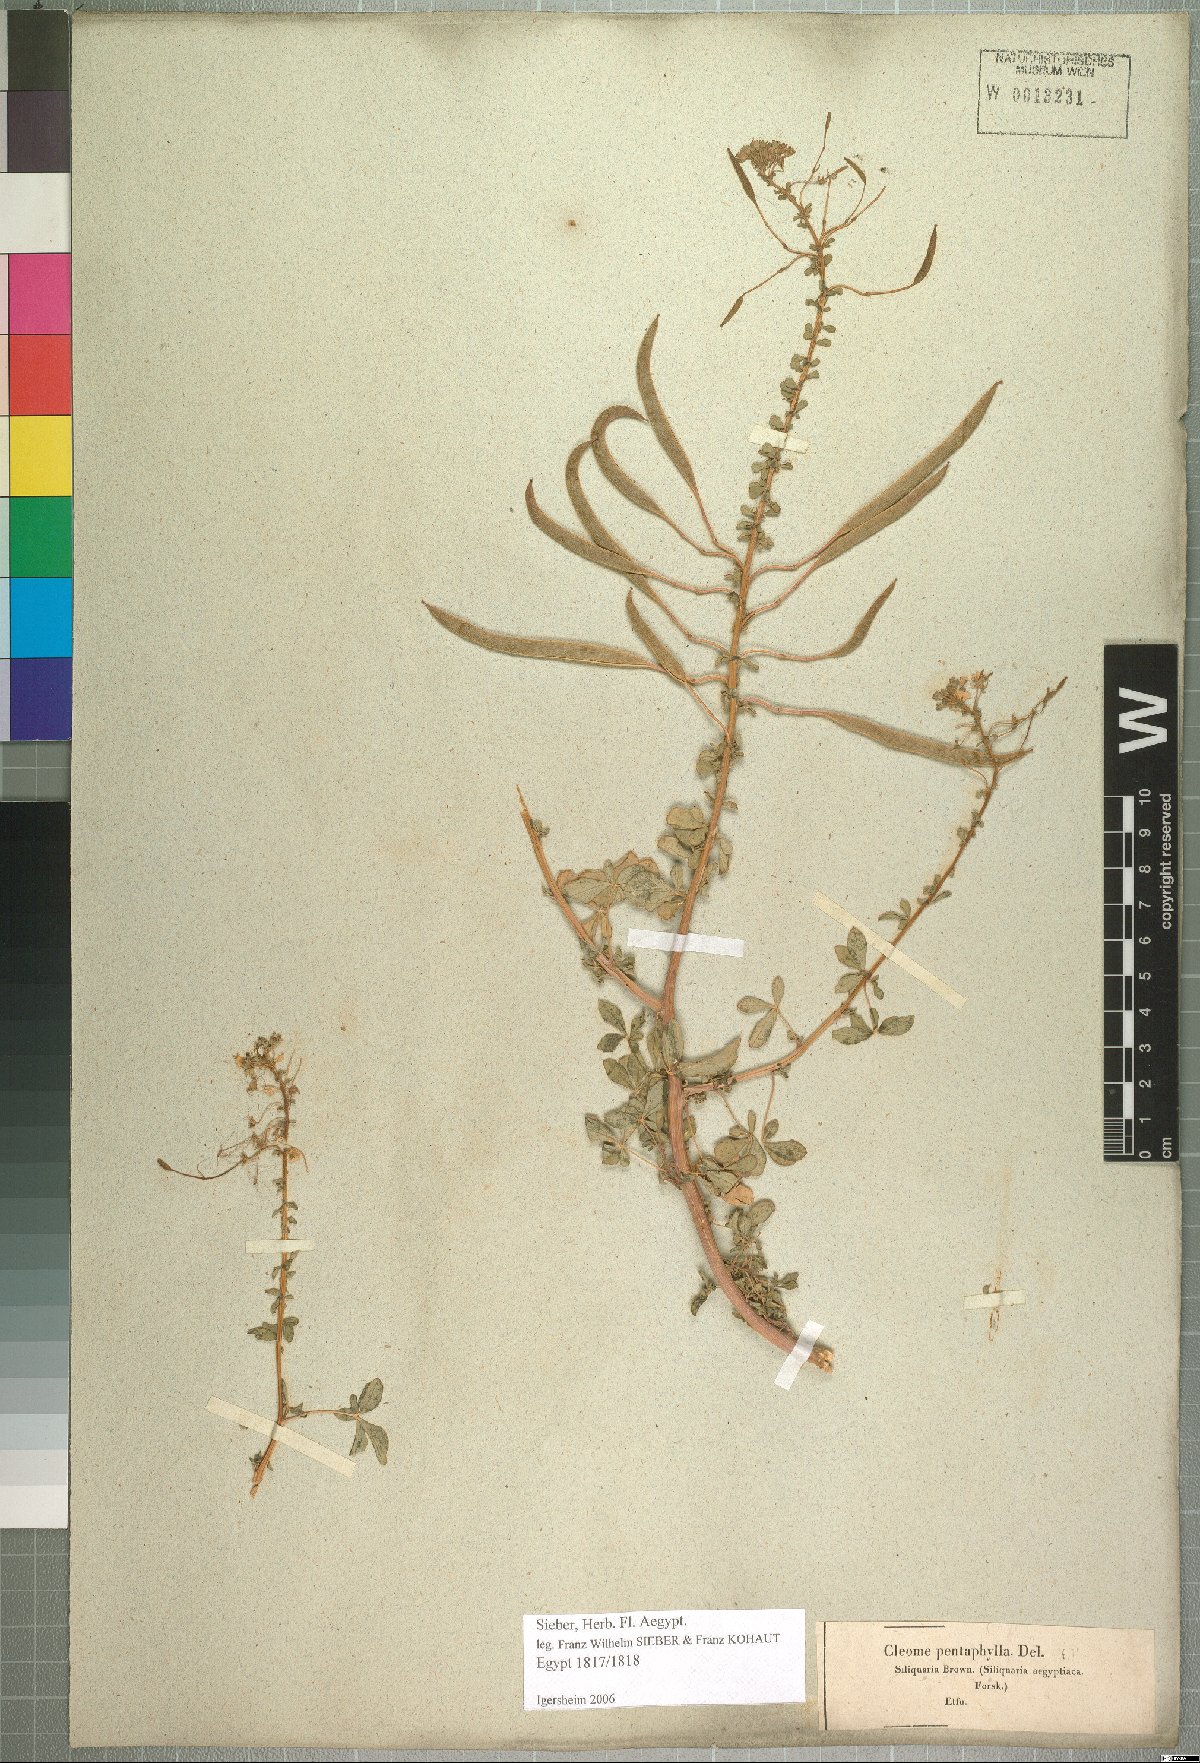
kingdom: Plantae
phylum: Tracheophyta
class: Magnoliopsida
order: Brassicales
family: Cleomaceae
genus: Gynandropsis
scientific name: Gynandropsis gynandra
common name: Spiderwisp
